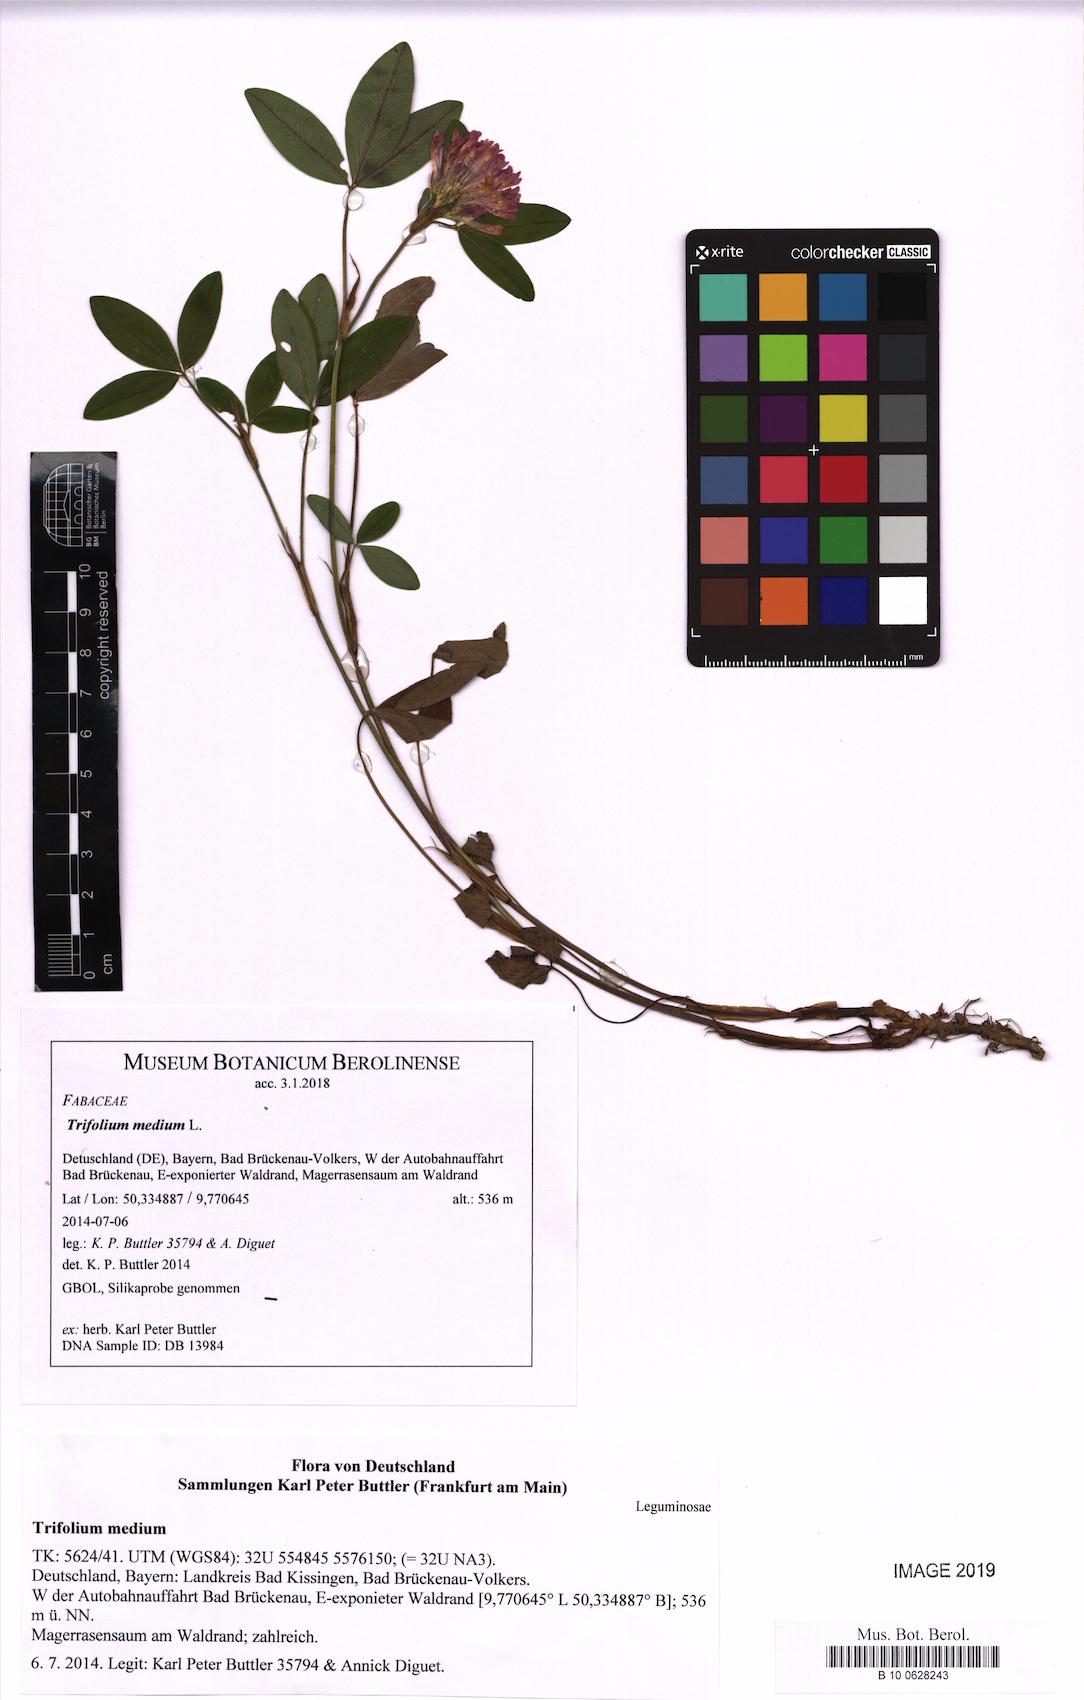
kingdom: Plantae
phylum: Tracheophyta
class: Magnoliopsida
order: Fabales
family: Fabaceae
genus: Trifolium
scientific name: Trifolium medium
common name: Zigzag clover
